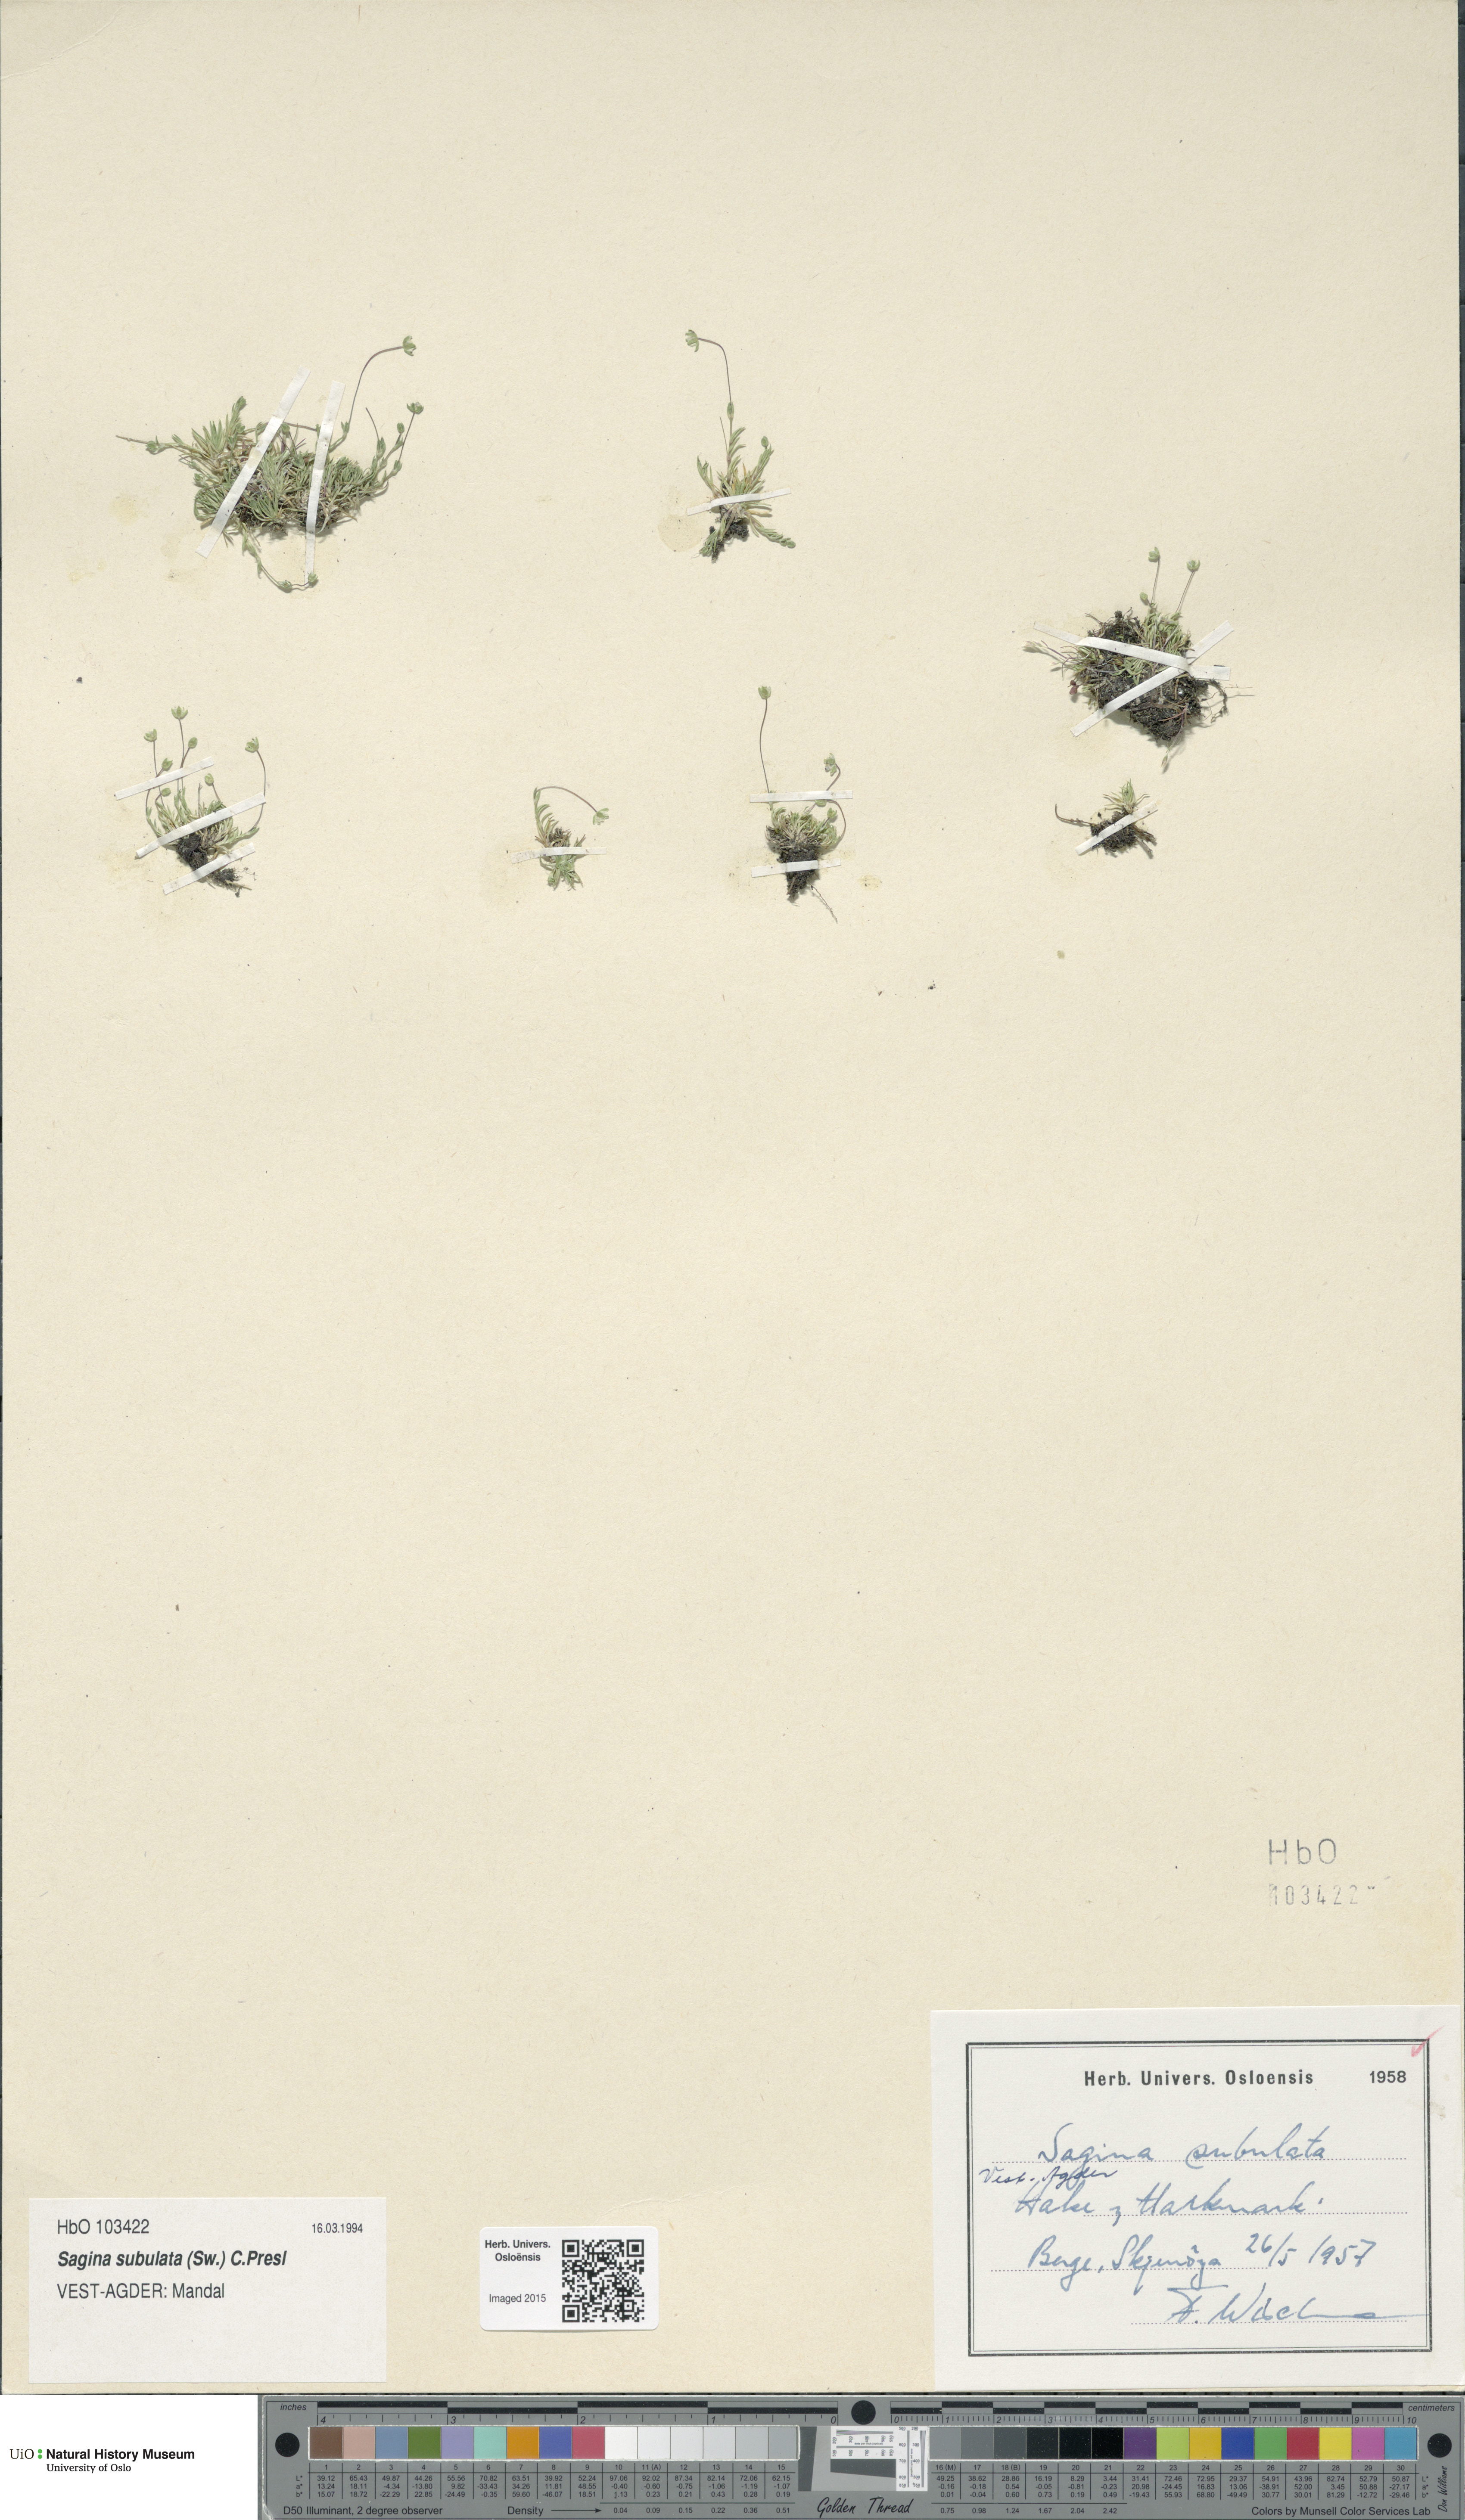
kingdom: Plantae
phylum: Tracheophyta
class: Magnoliopsida
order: Caryophyllales
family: Caryophyllaceae
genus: Sagina
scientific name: Sagina alexandrae
